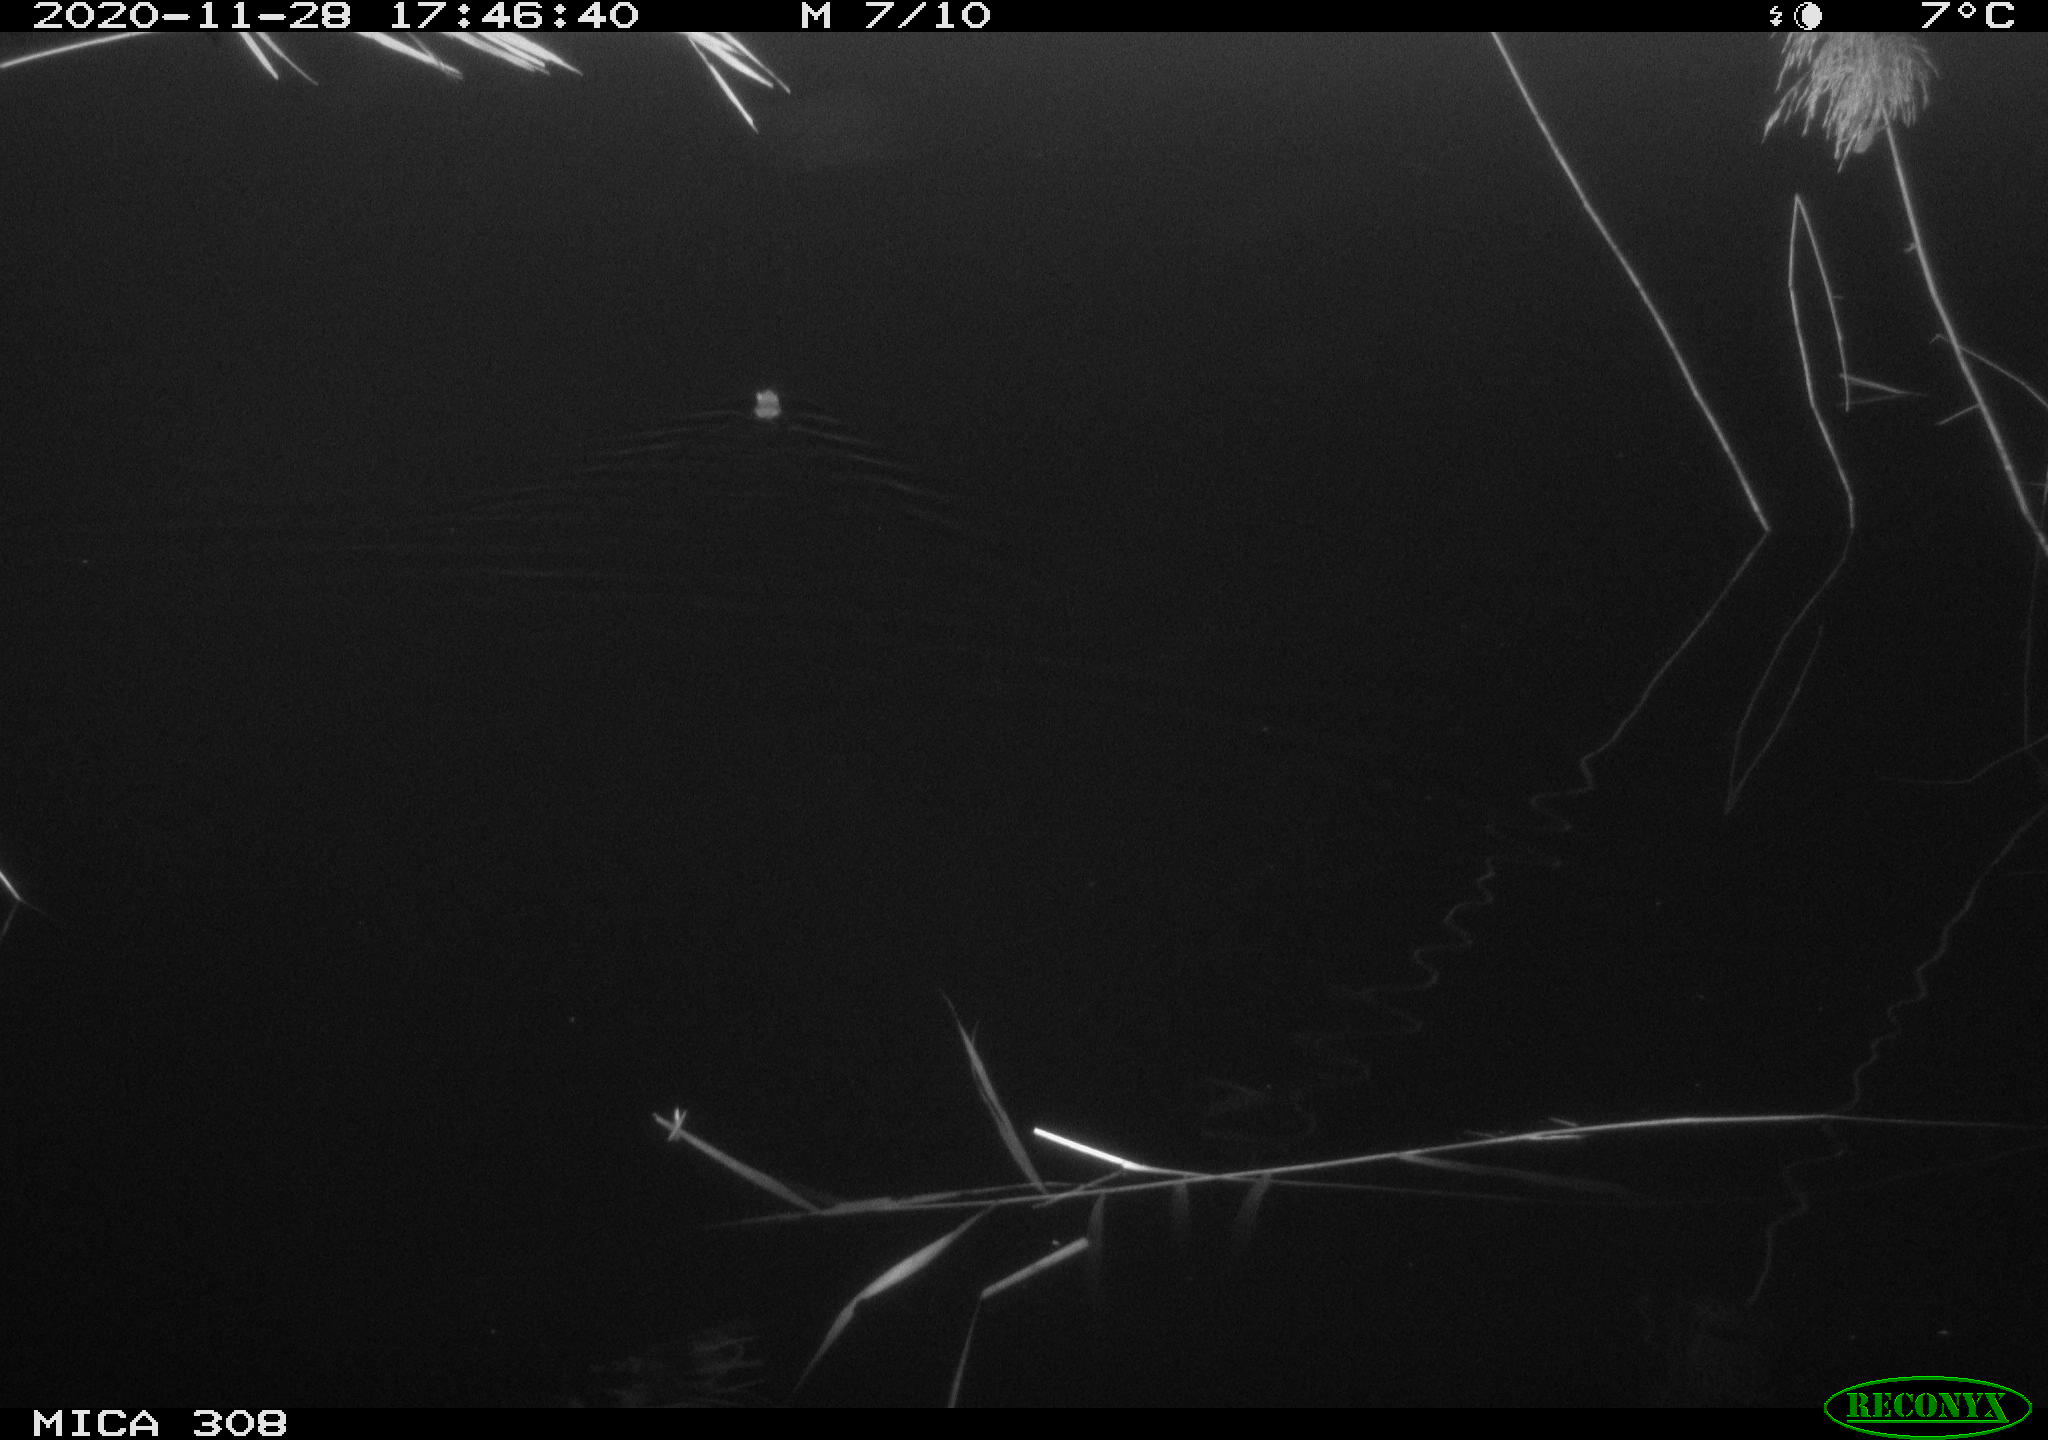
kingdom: Animalia
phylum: Chordata
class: Mammalia
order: Rodentia
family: Muridae
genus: Rattus
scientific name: Rattus norvegicus
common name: Brown rat
